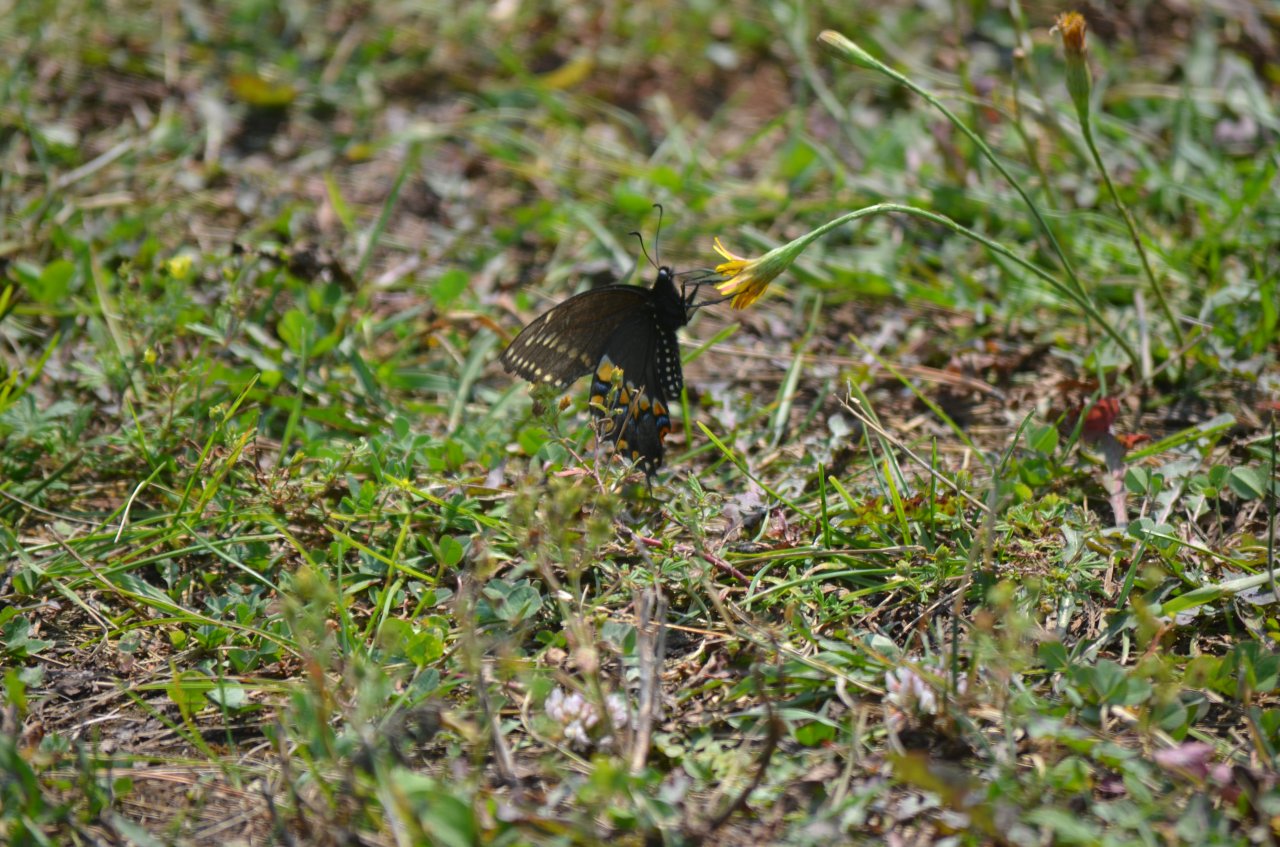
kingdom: Animalia
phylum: Arthropoda
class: Insecta
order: Lepidoptera
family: Papilionidae
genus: Papilio
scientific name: Papilio polyxenes
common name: Black Swallowtail
